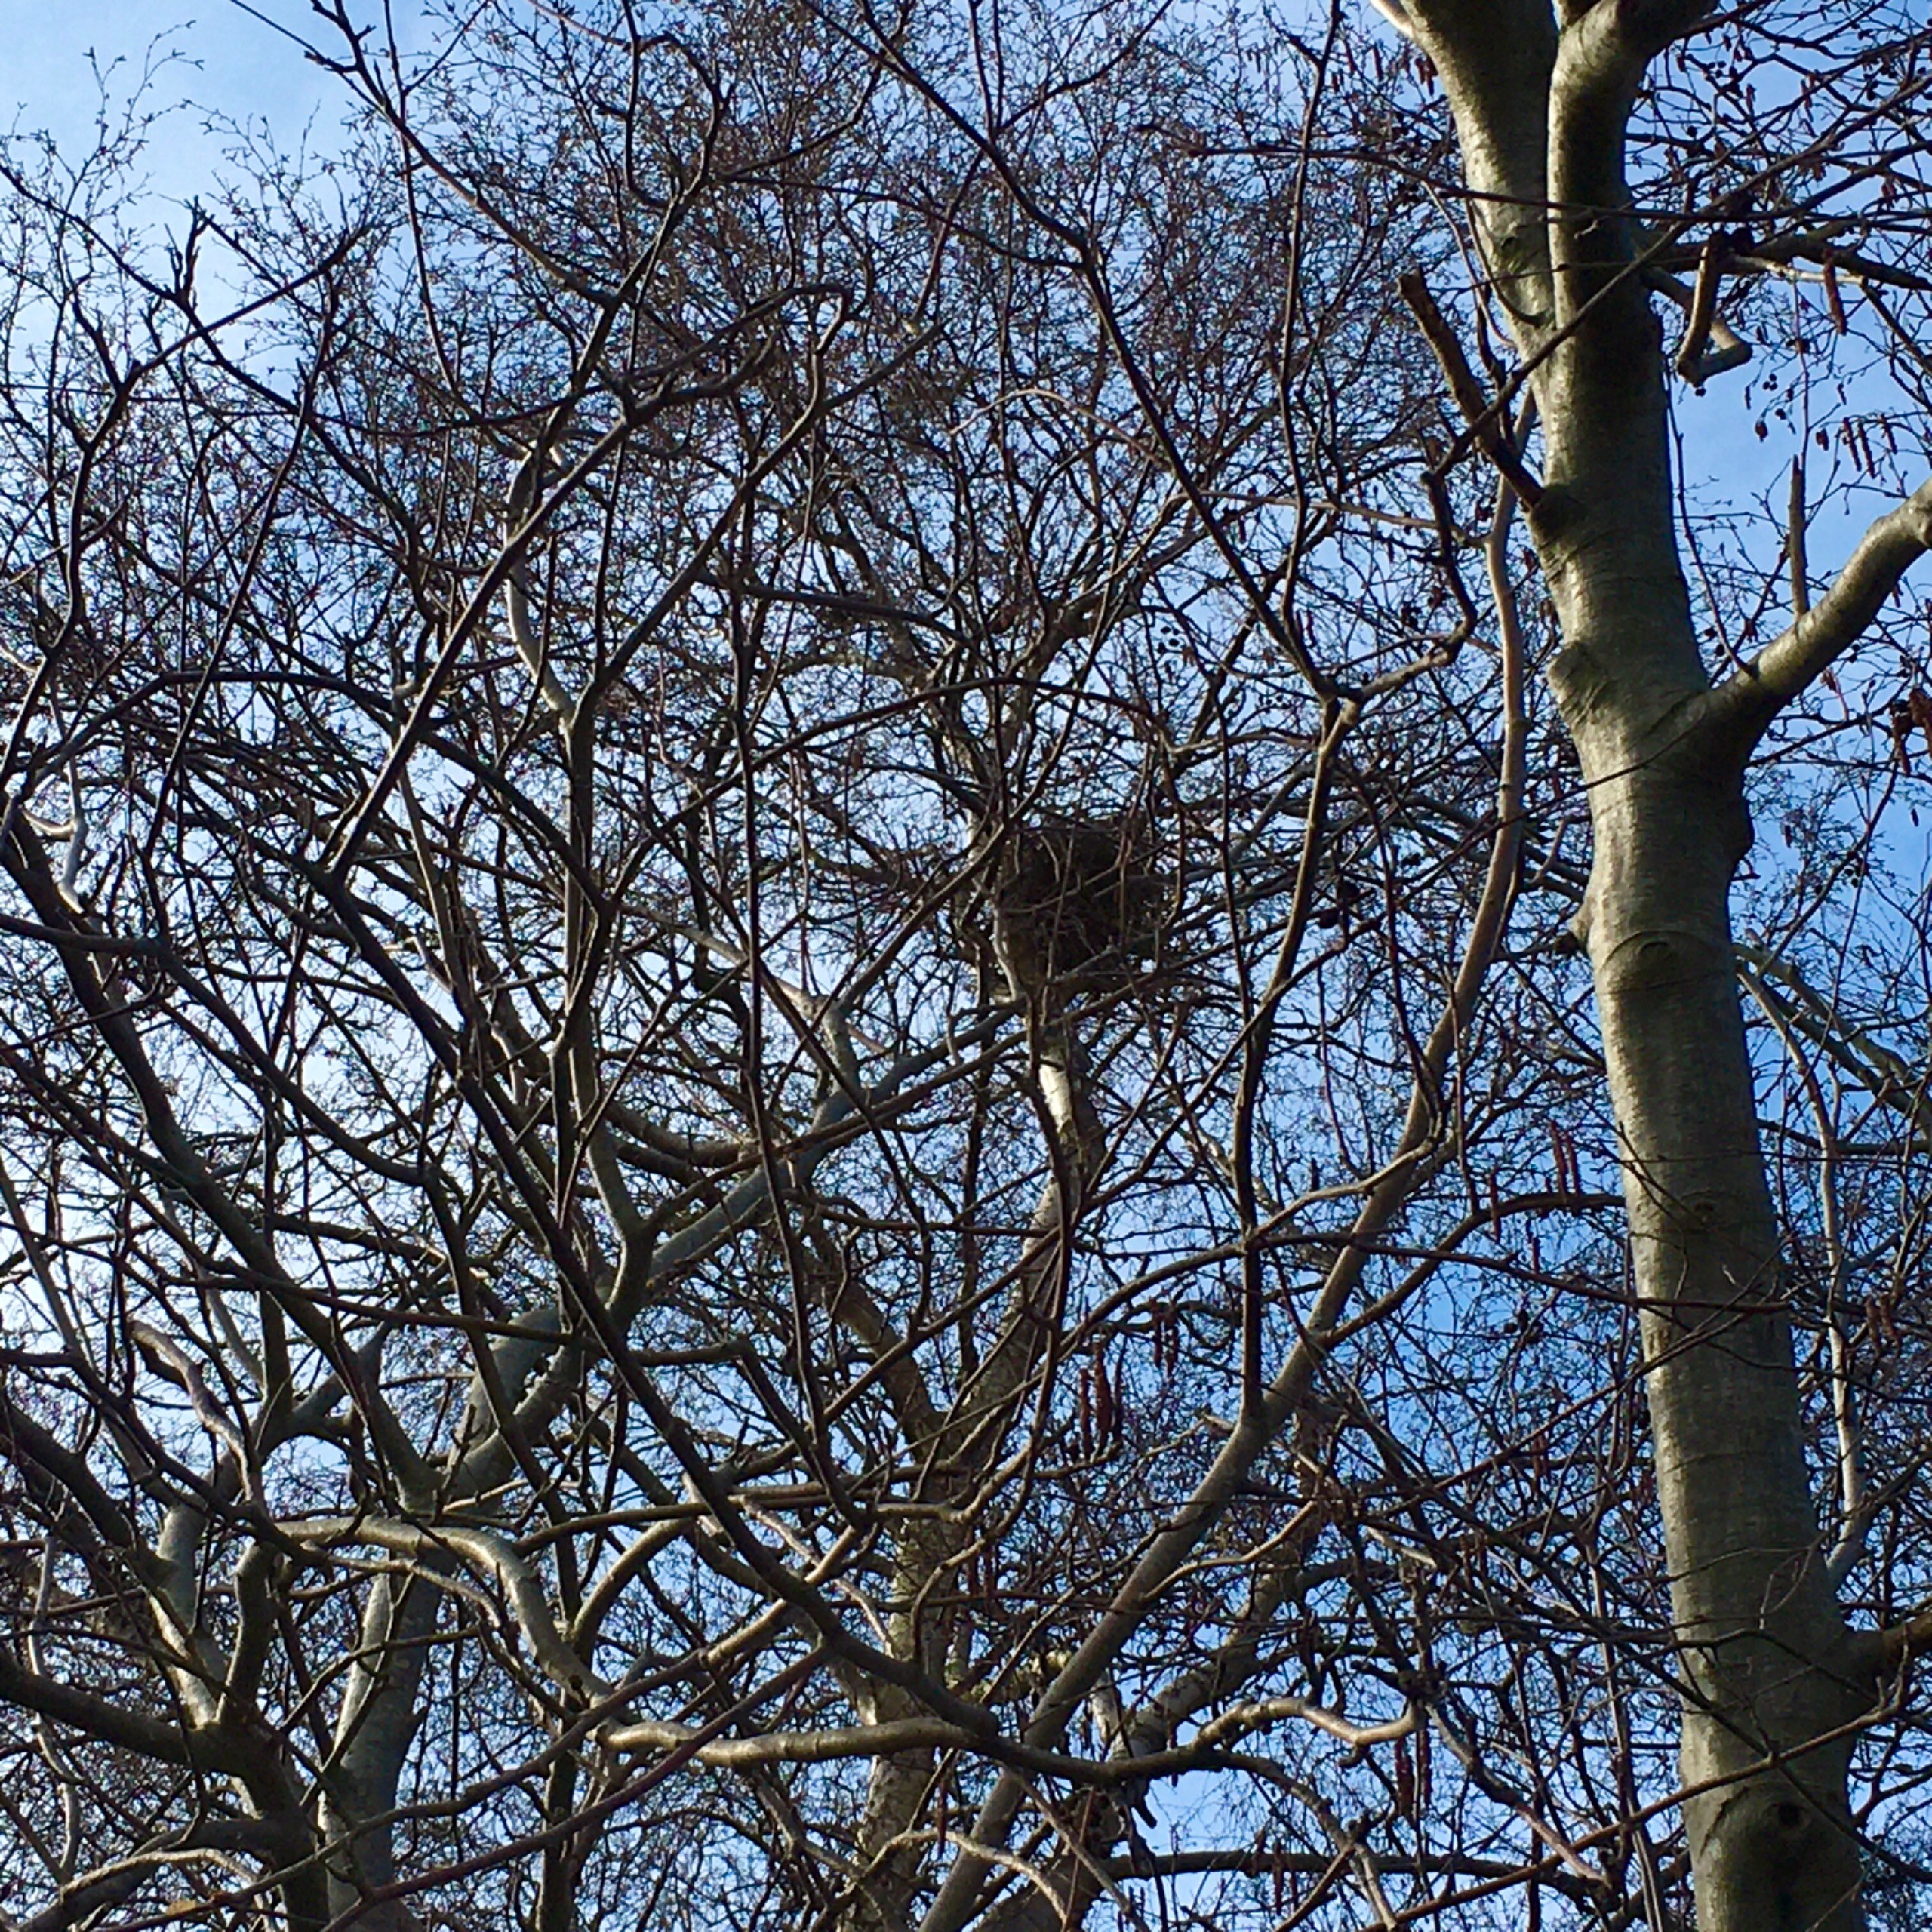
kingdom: Animalia
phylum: Chordata
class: Aves
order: Accipitriformes
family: Accipitridae
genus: Buteo
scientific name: Buteo buteo
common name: Musvåge
